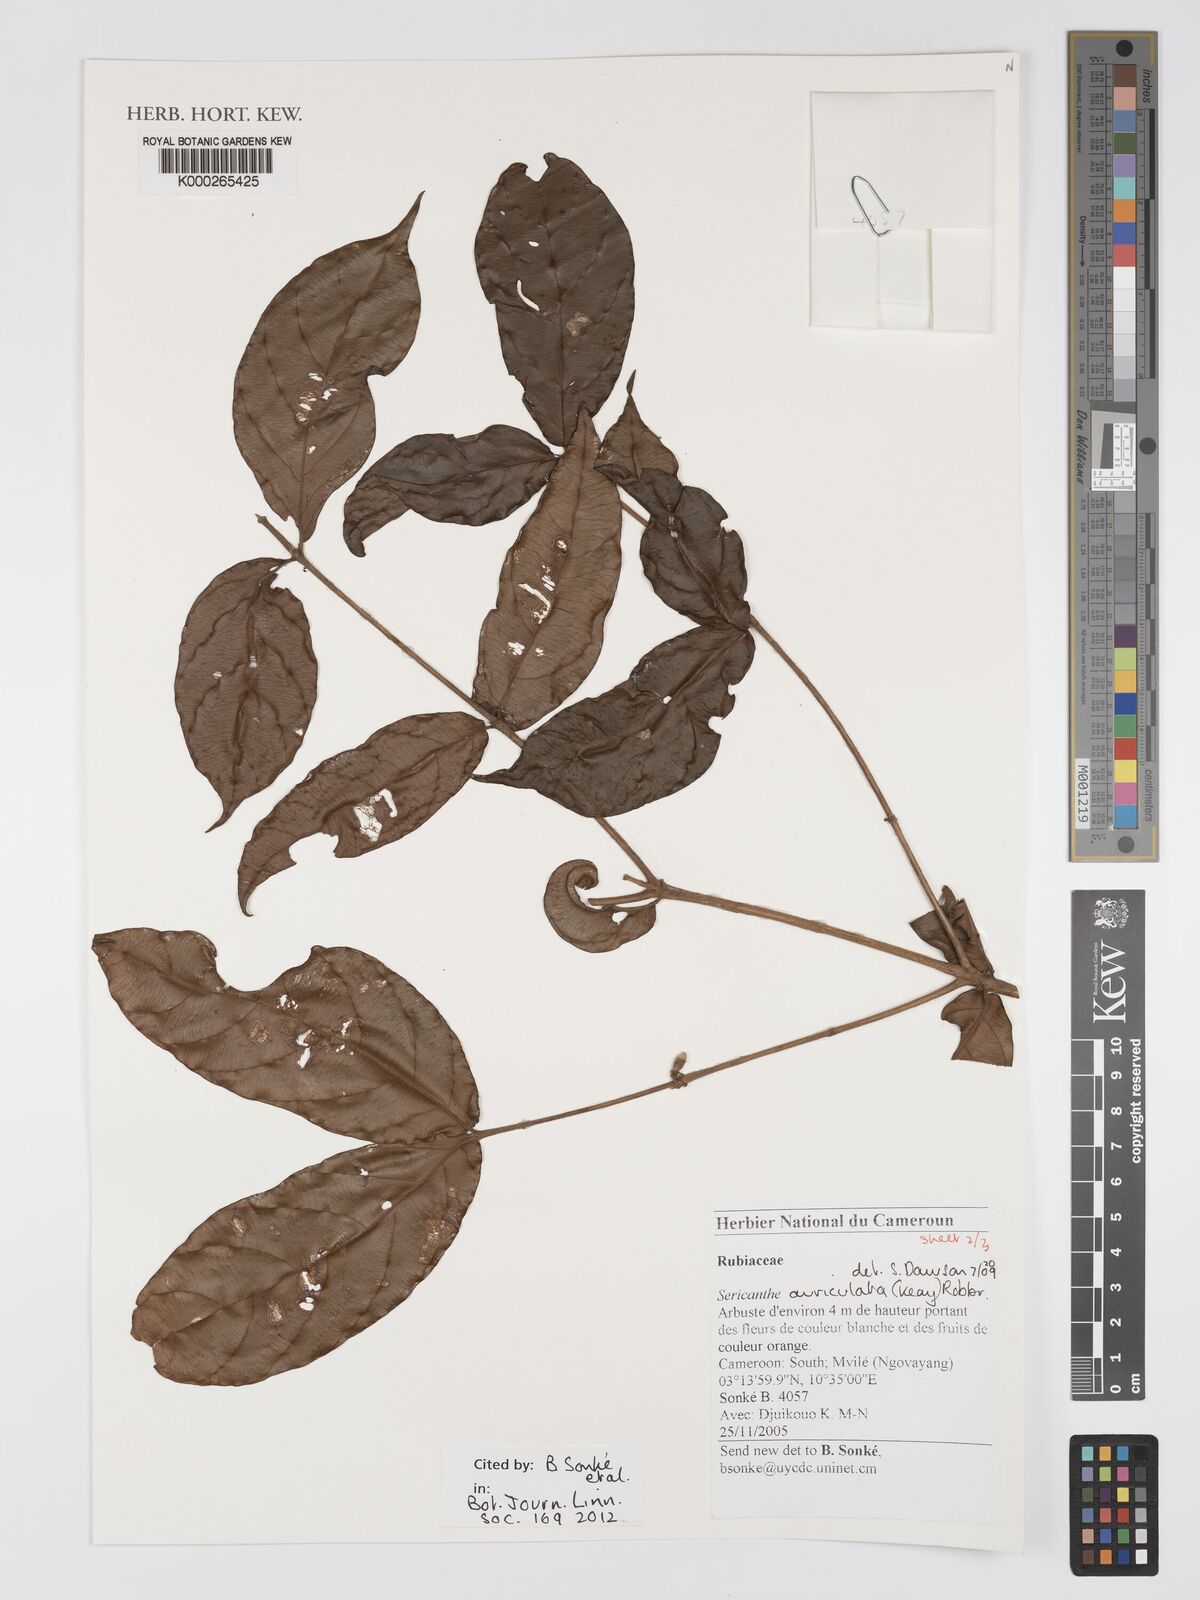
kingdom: Plantae
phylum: Tracheophyta
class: Magnoliopsida
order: Gentianales
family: Rubiaceae
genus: Sericanthe
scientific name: Sericanthe auriculata
